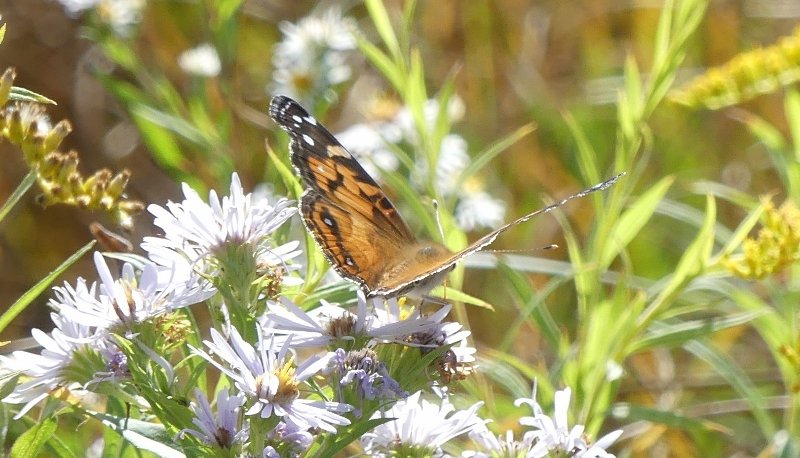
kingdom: Animalia
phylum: Arthropoda
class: Insecta
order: Lepidoptera
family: Nymphalidae
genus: Vanessa
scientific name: Vanessa virginiensis
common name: American Lady
